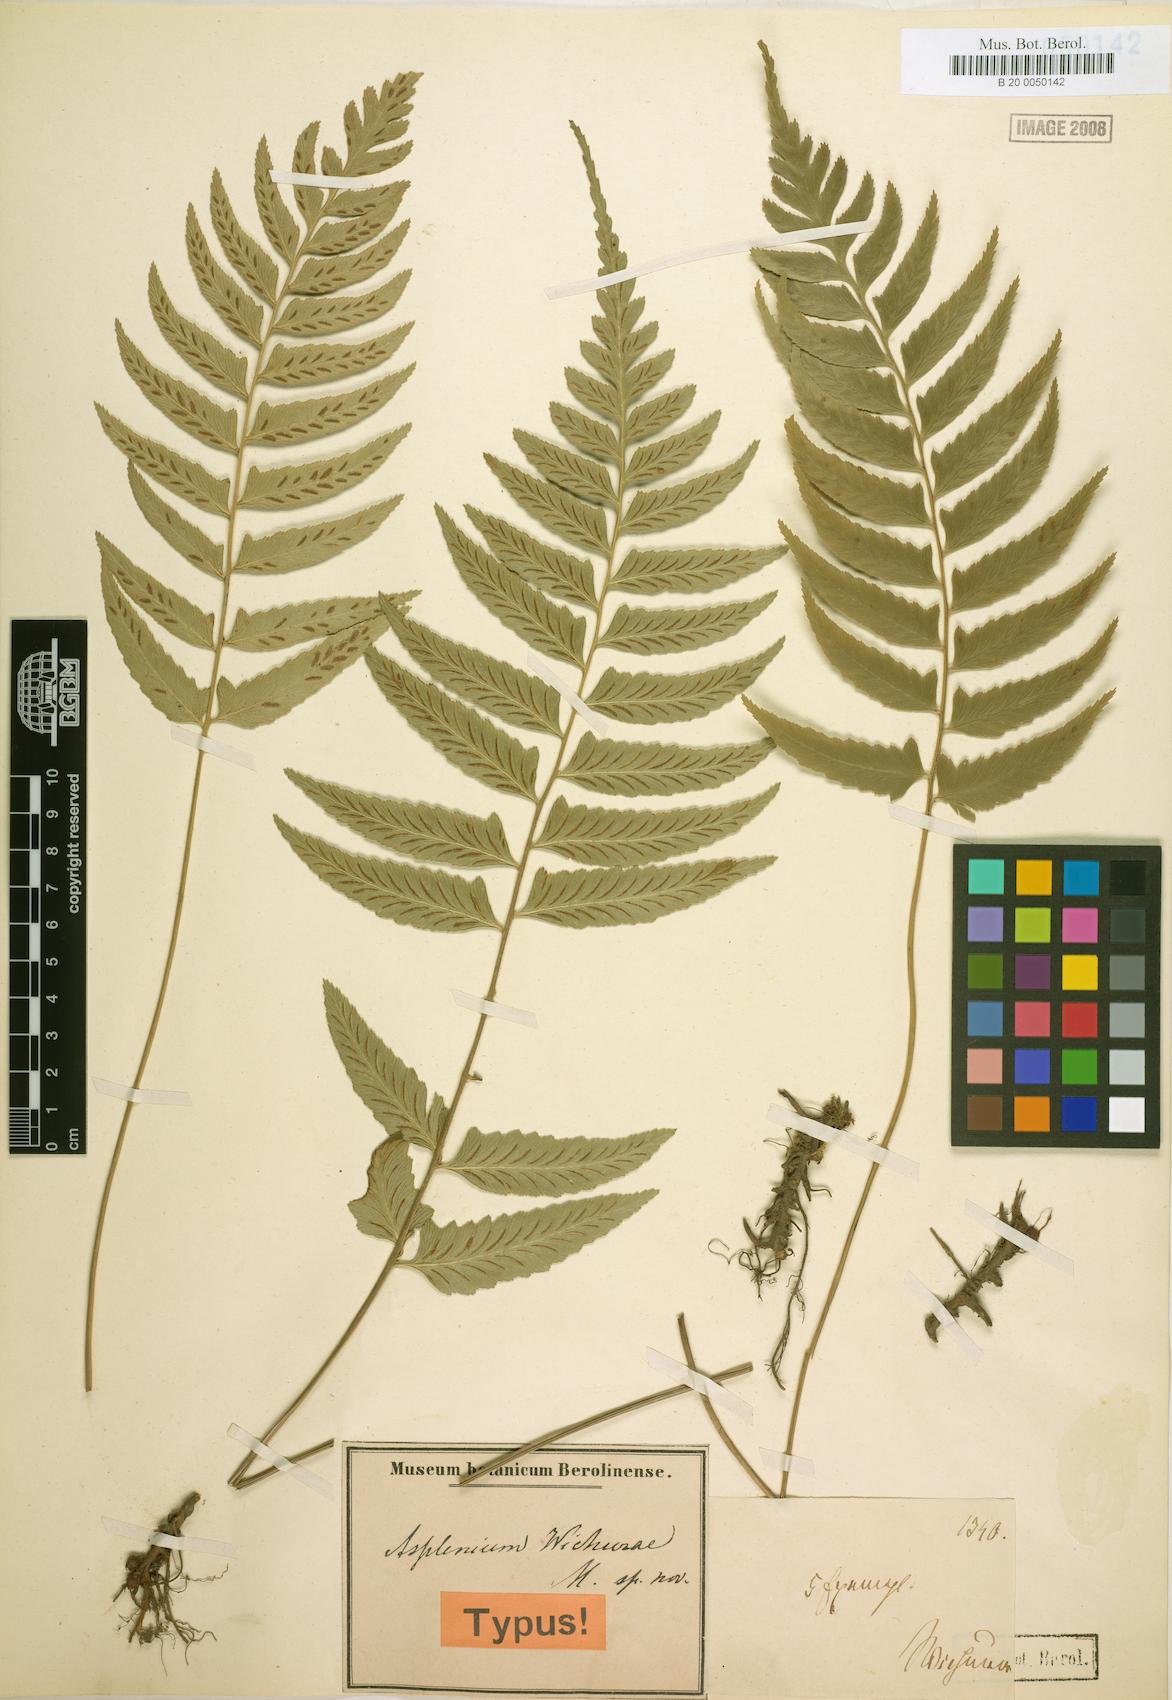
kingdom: Plantae
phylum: Tracheophyta
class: Polypodiopsida
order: Polypodiales
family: Athyriaceae
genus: Diplazium
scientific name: Diplazium wichurae
